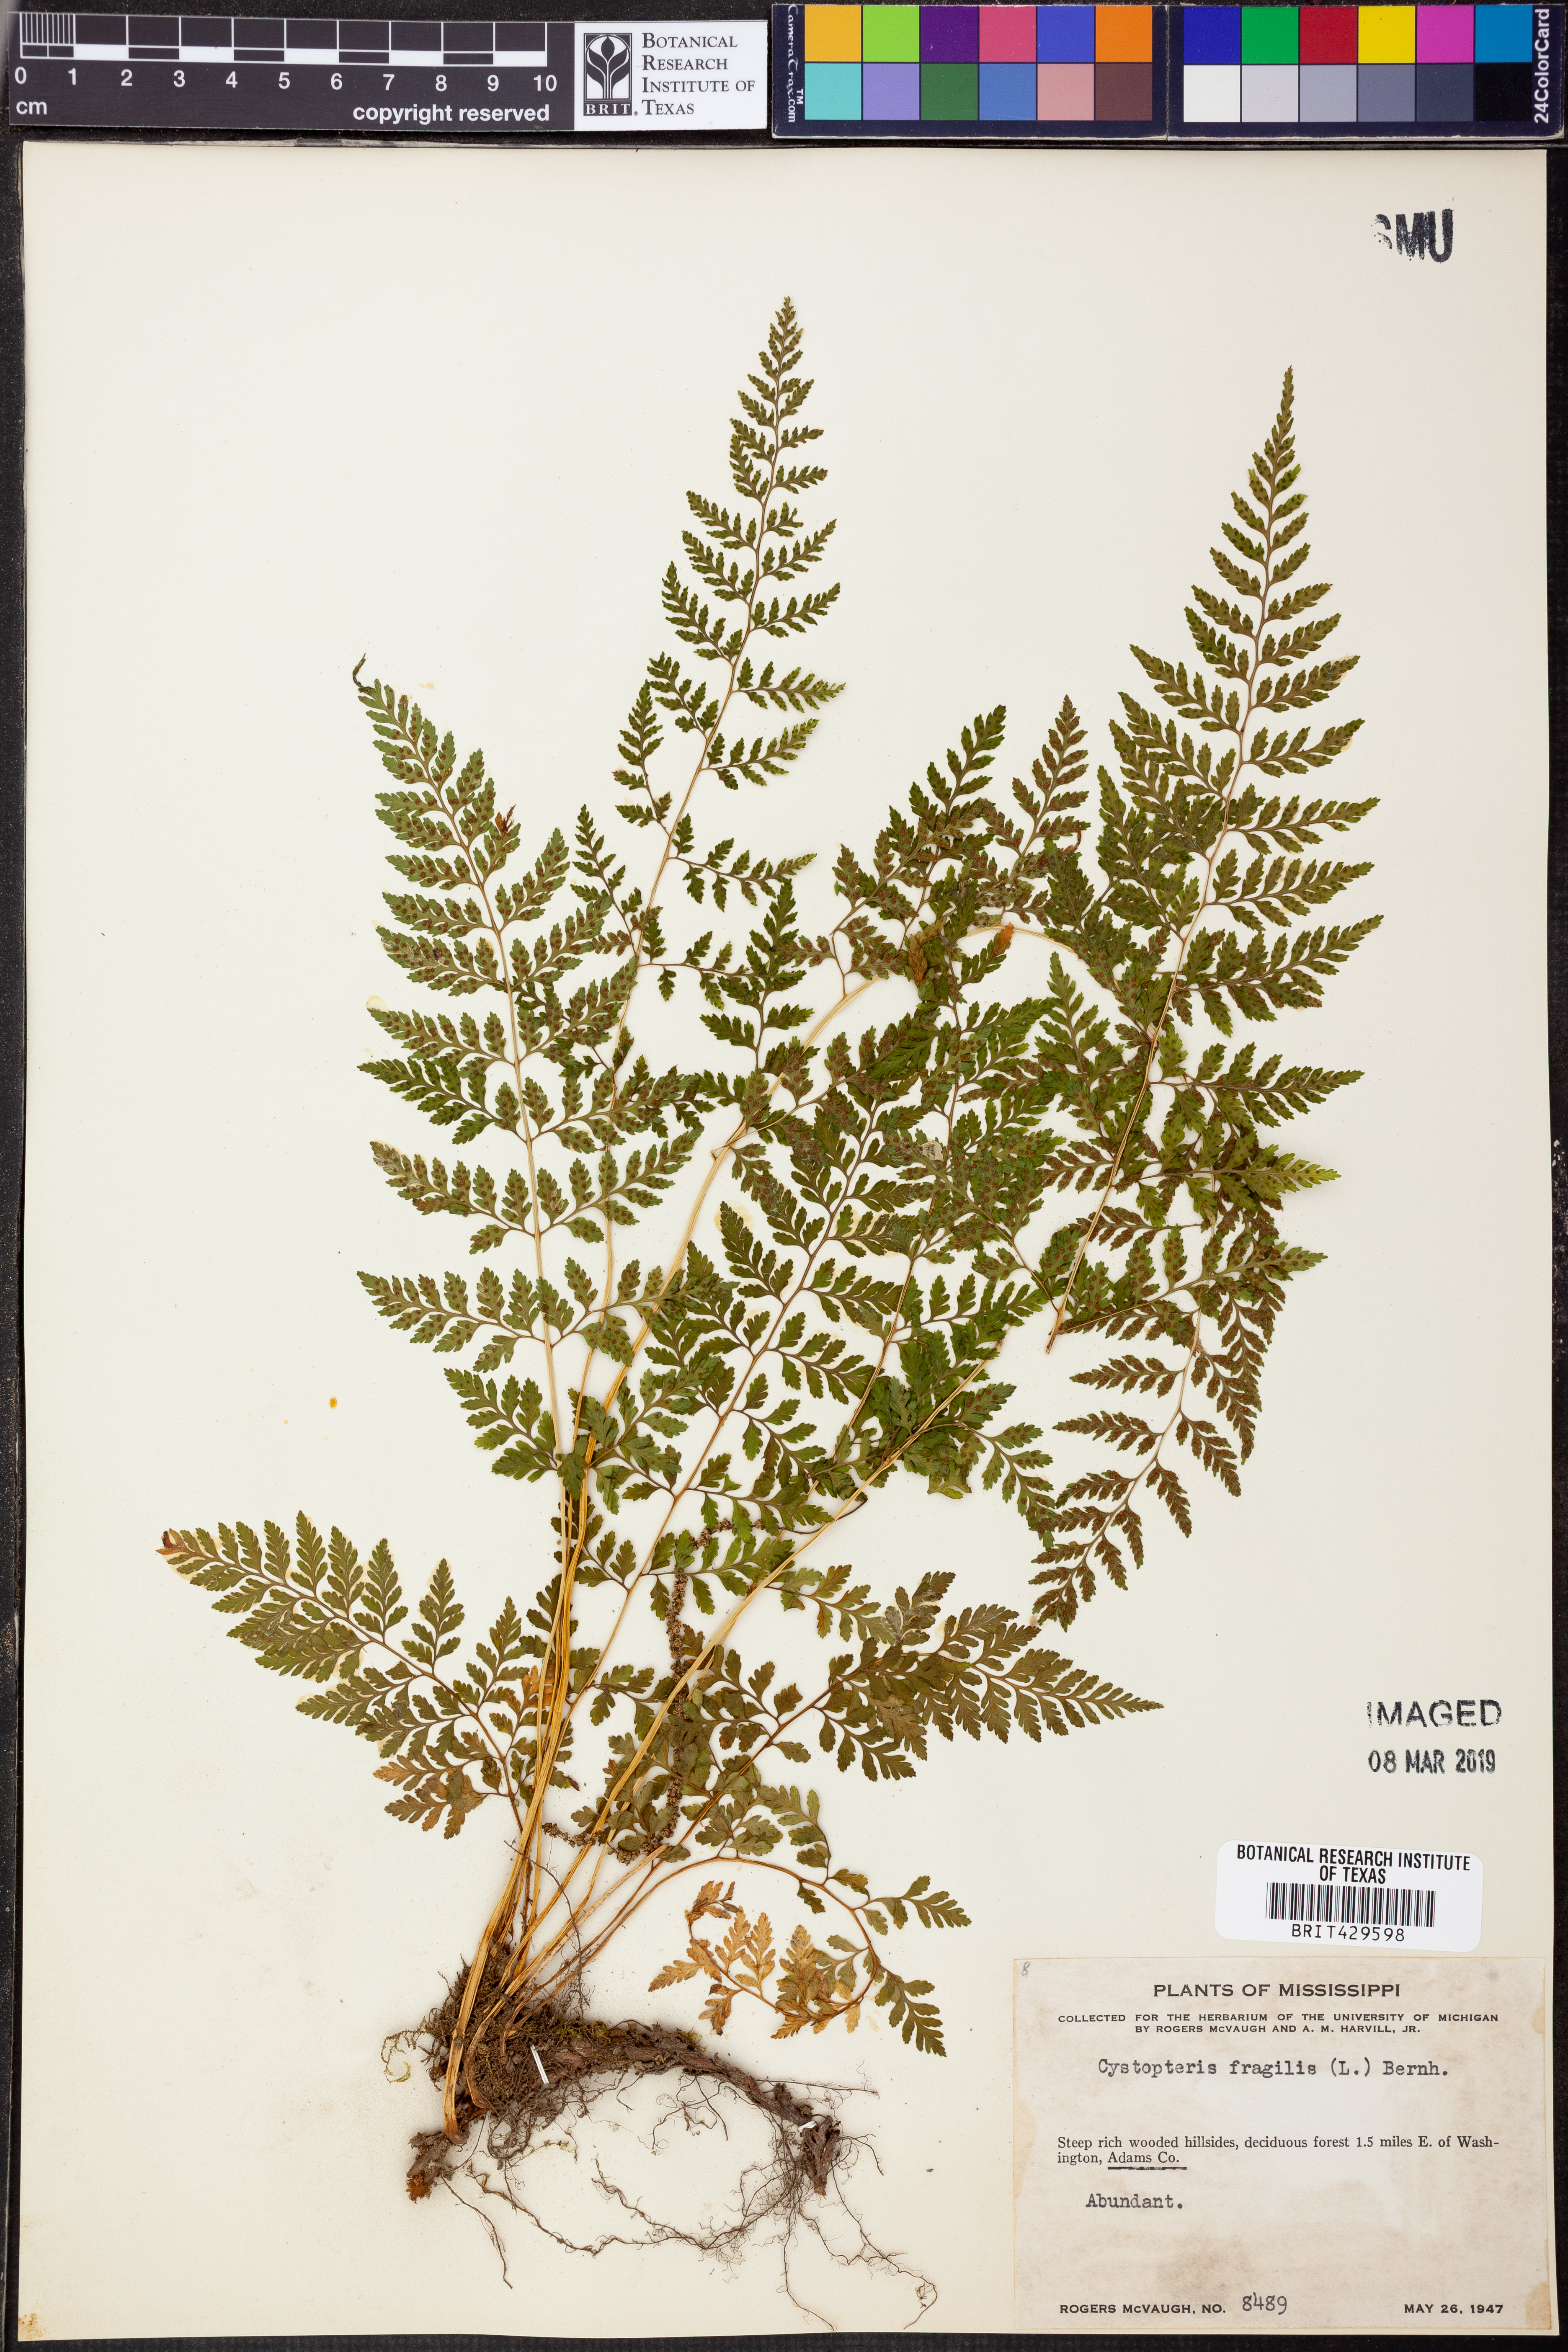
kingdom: Plantae
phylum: Tracheophyta
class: Polypodiopsida
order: Polypodiales
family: Cystopteridaceae
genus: Cystopteris
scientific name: Cystopteris fragilis
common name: Brittle bladder fern
